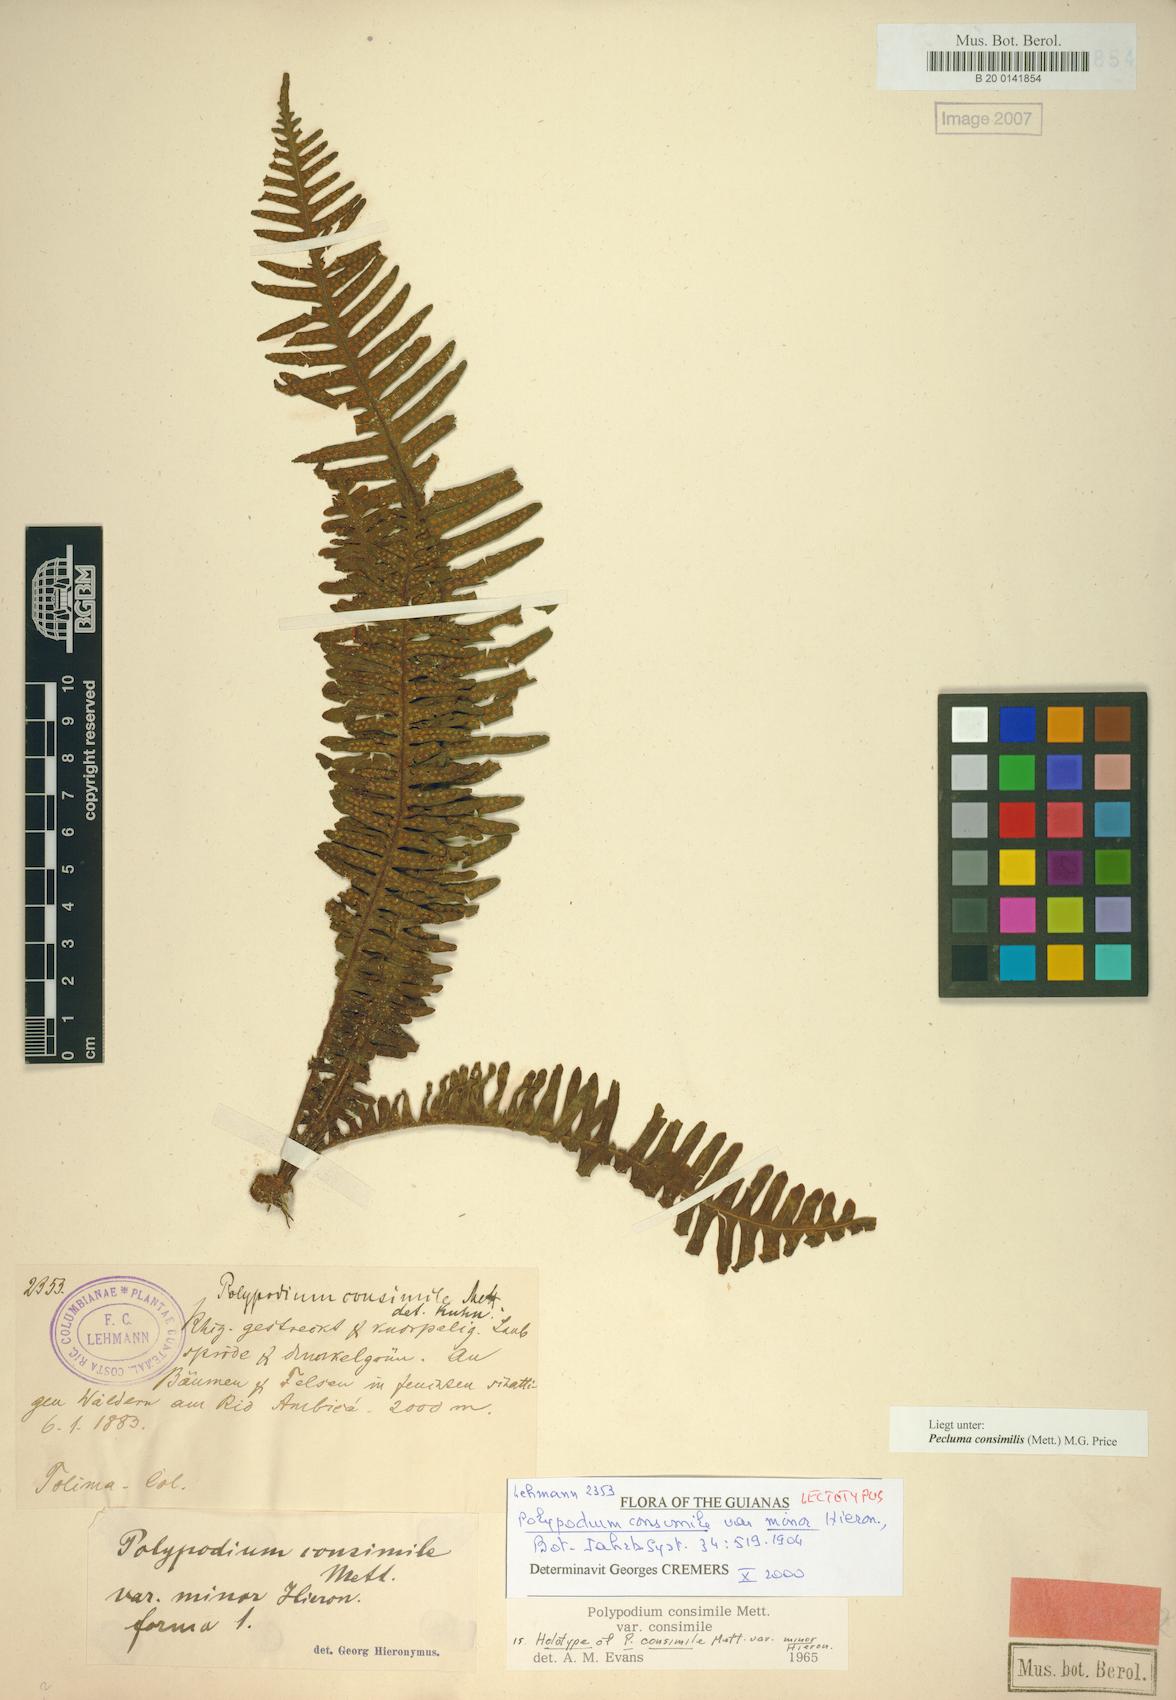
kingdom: Plantae
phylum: Tracheophyta
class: Polypodiopsida
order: Polypodiales
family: Polypodiaceae
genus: Pecluma
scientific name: Pecluma consimilis
